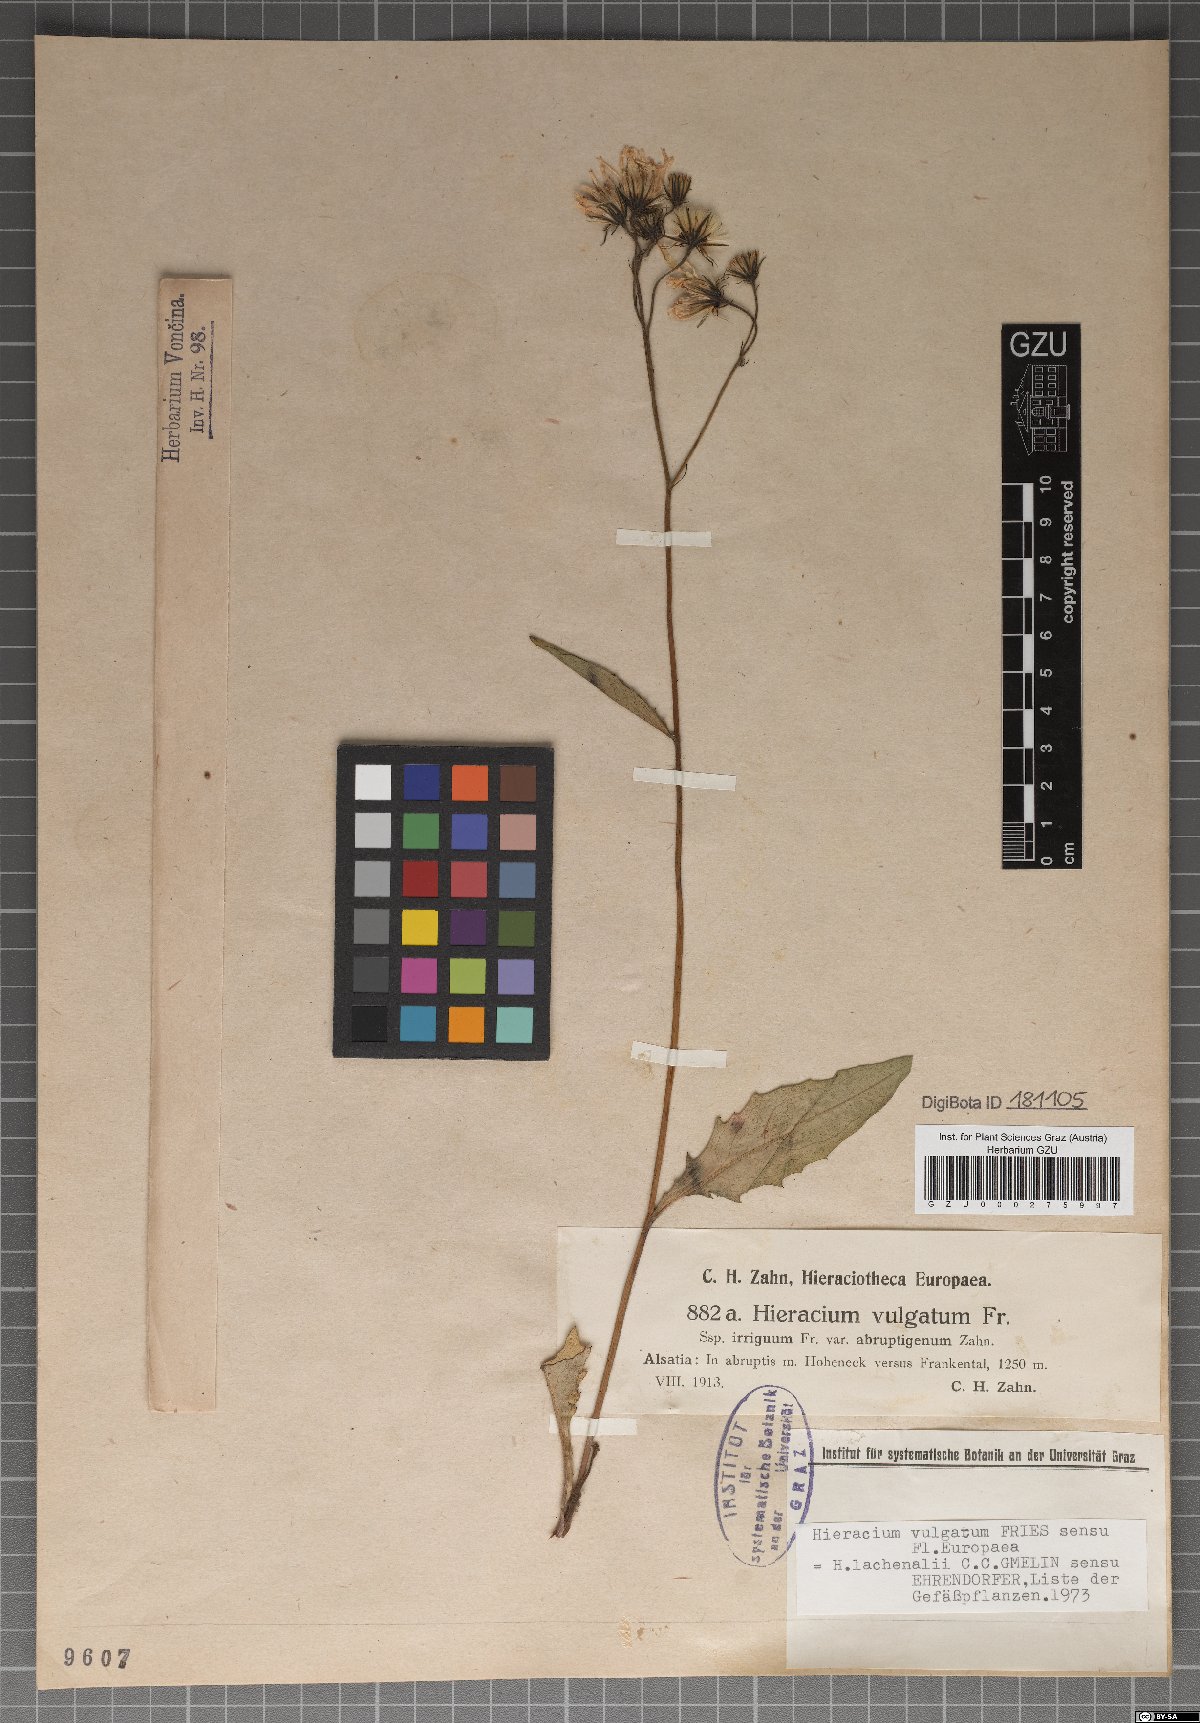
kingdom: Plantae
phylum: Tracheophyta
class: Magnoliopsida
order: Asterales
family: Asteraceae
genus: Hieracium
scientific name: Hieracium vulgatum
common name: Common hawkweed
